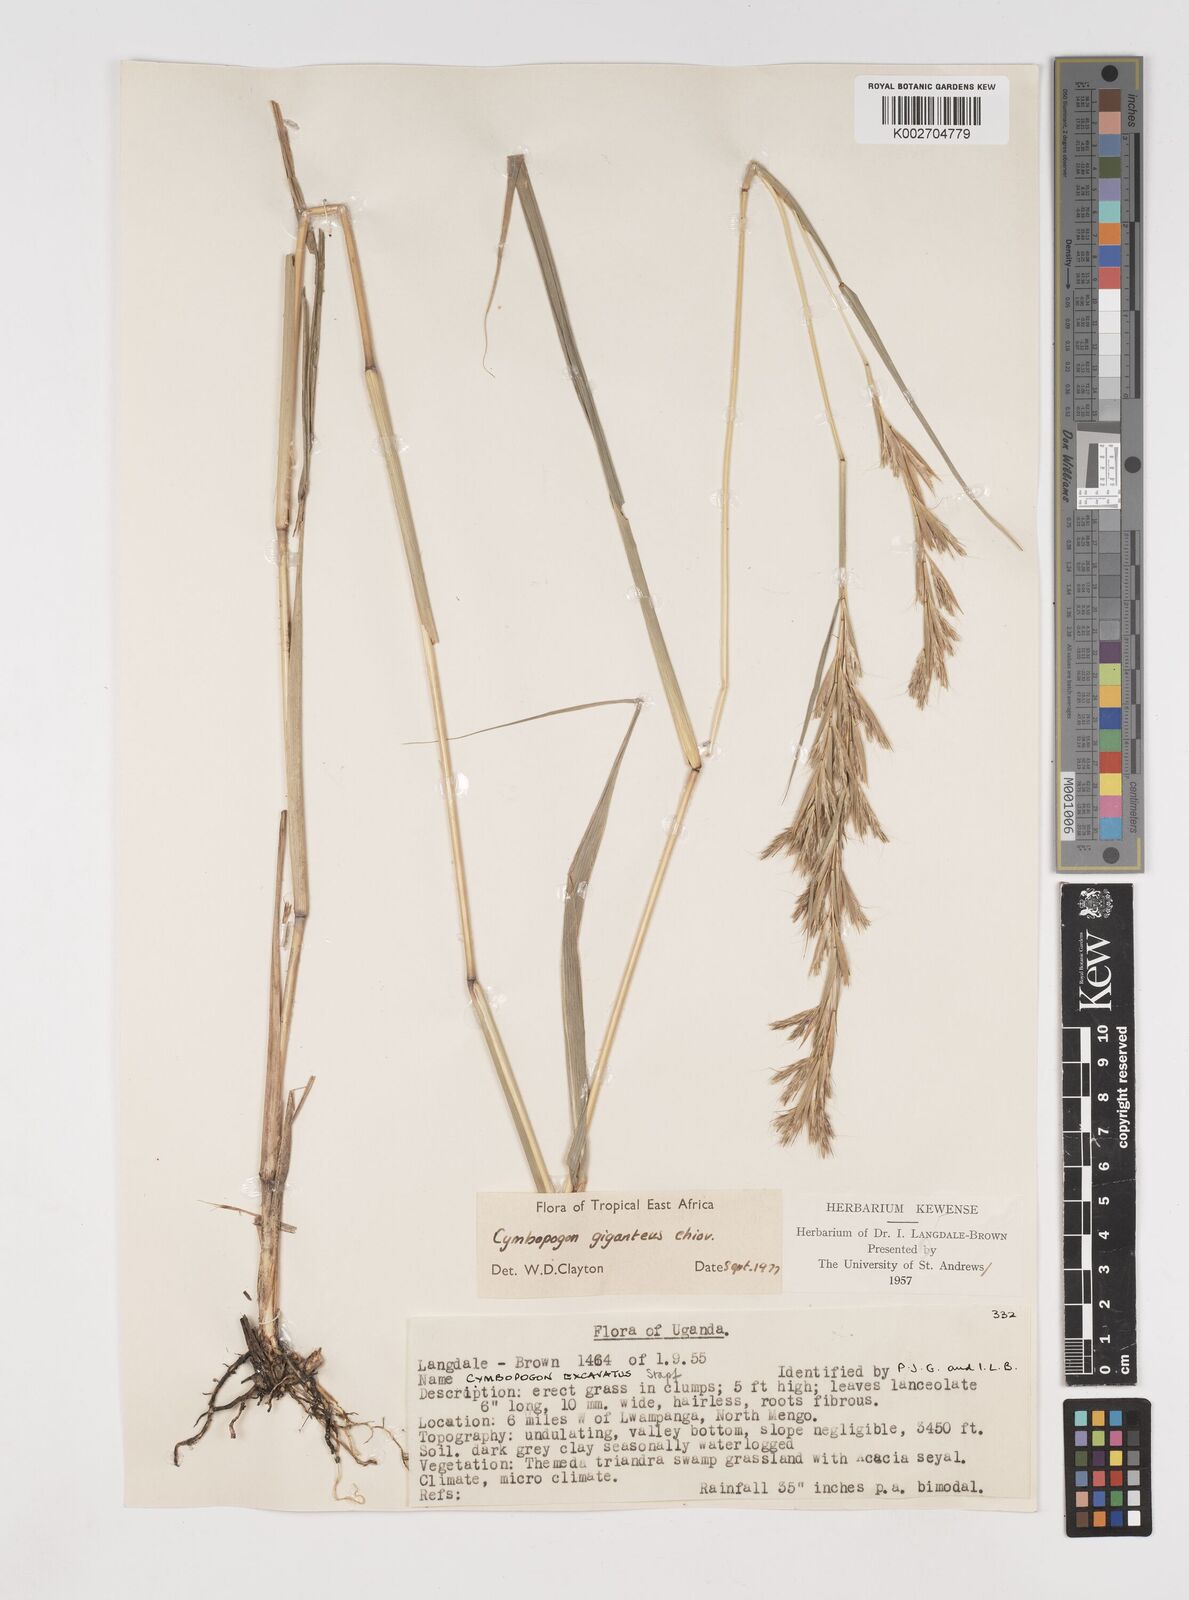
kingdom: Plantae
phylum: Tracheophyta
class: Liliopsida
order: Poales
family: Poaceae
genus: Cymbopogon
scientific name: Cymbopogon giganteus
